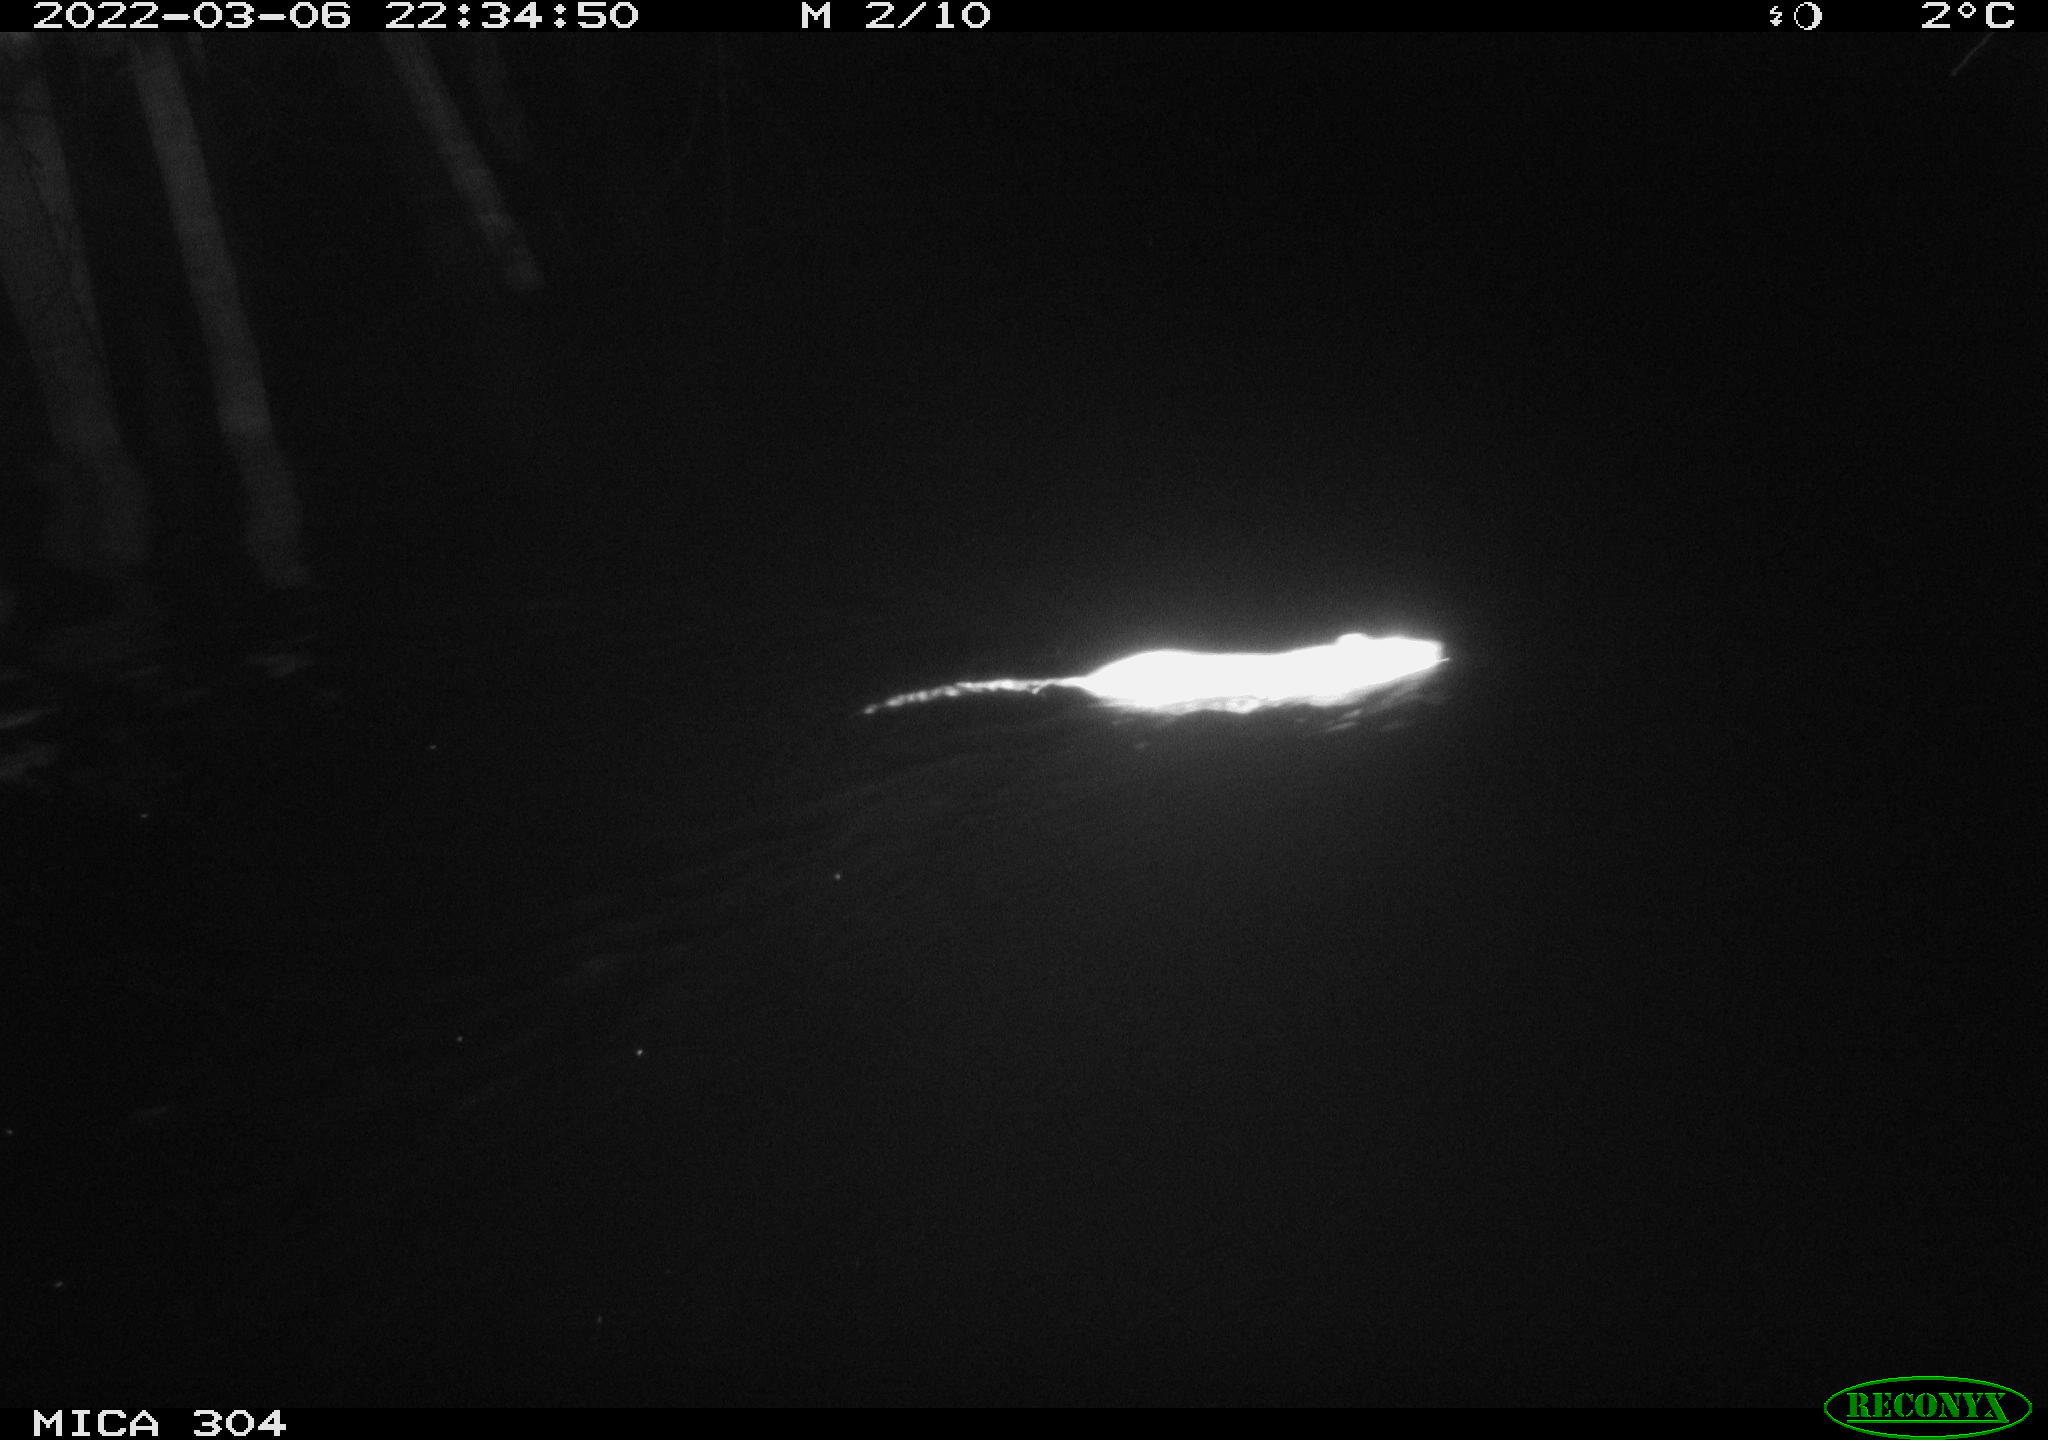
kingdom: Animalia
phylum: Chordata
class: Mammalia
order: Rodentia
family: Muridae
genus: Rattus
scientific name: Rattus norvegicus
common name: Brown rat
